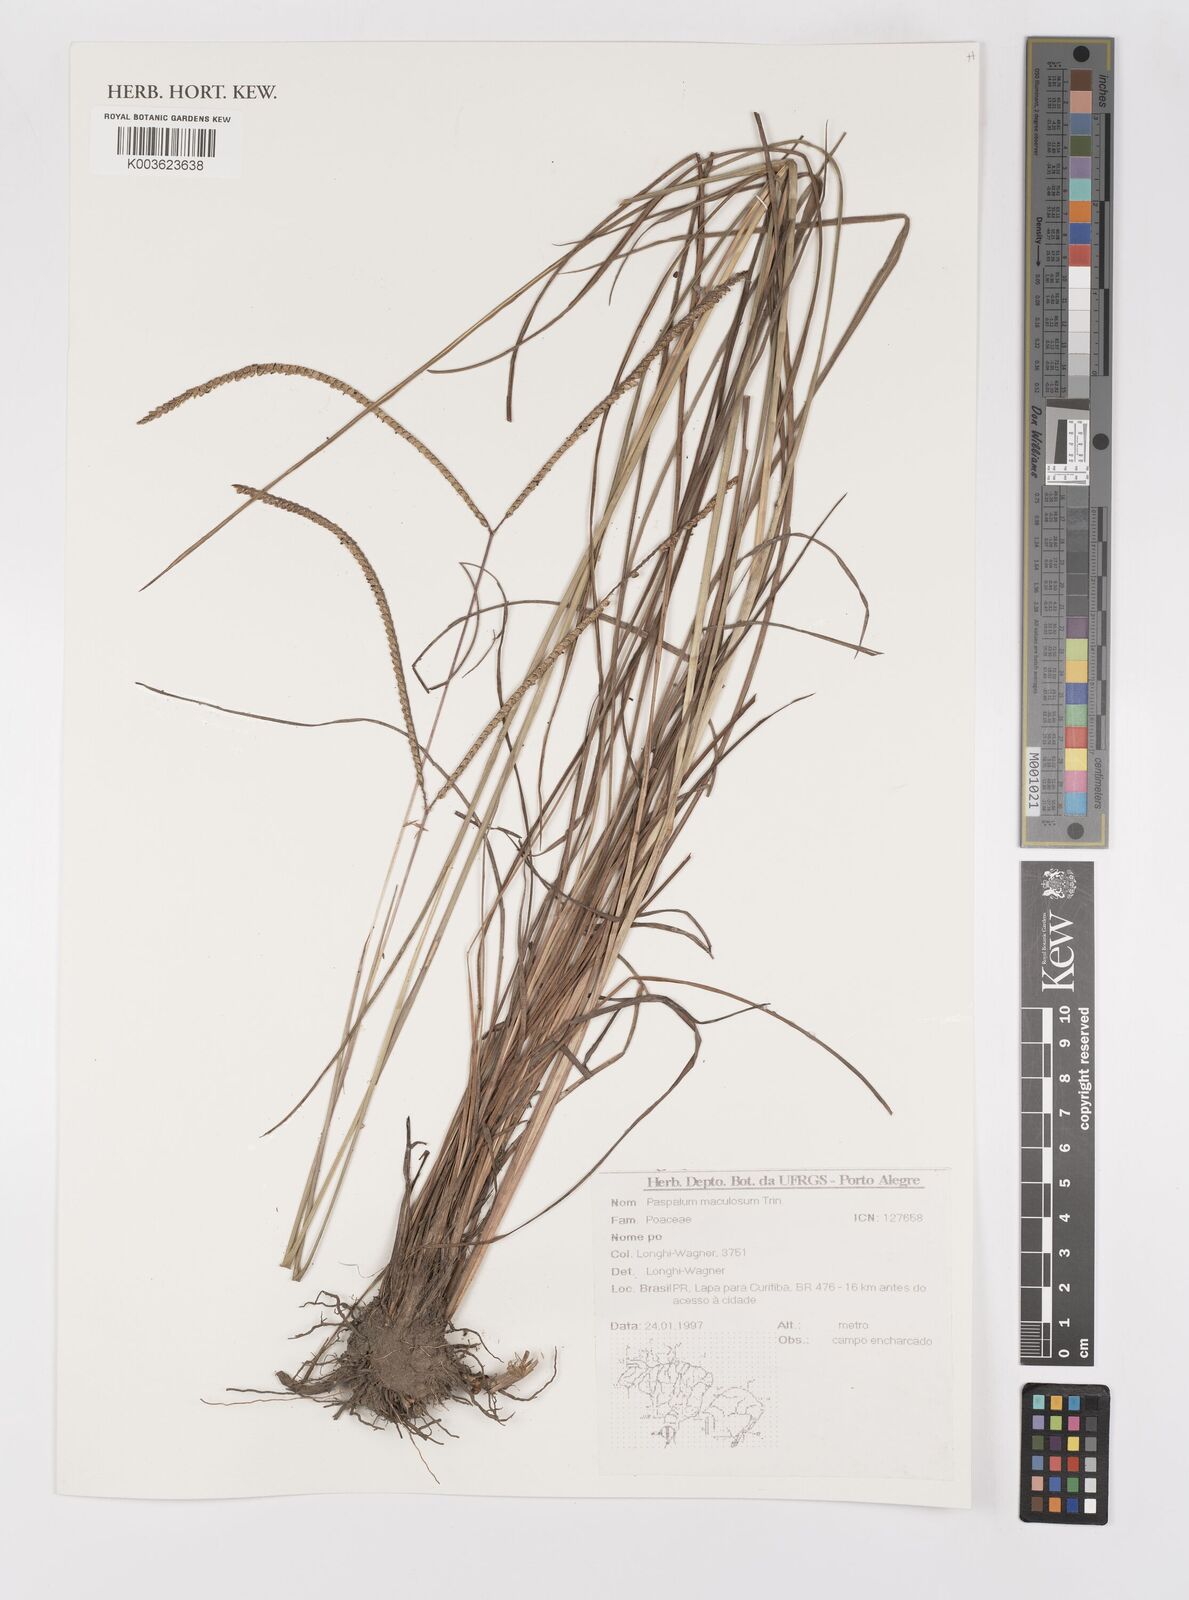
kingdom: Plantae
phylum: Tracheophyta
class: Liliopsida
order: Poales
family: Poaceae
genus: Paspalum
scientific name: Paspalum maculosum
